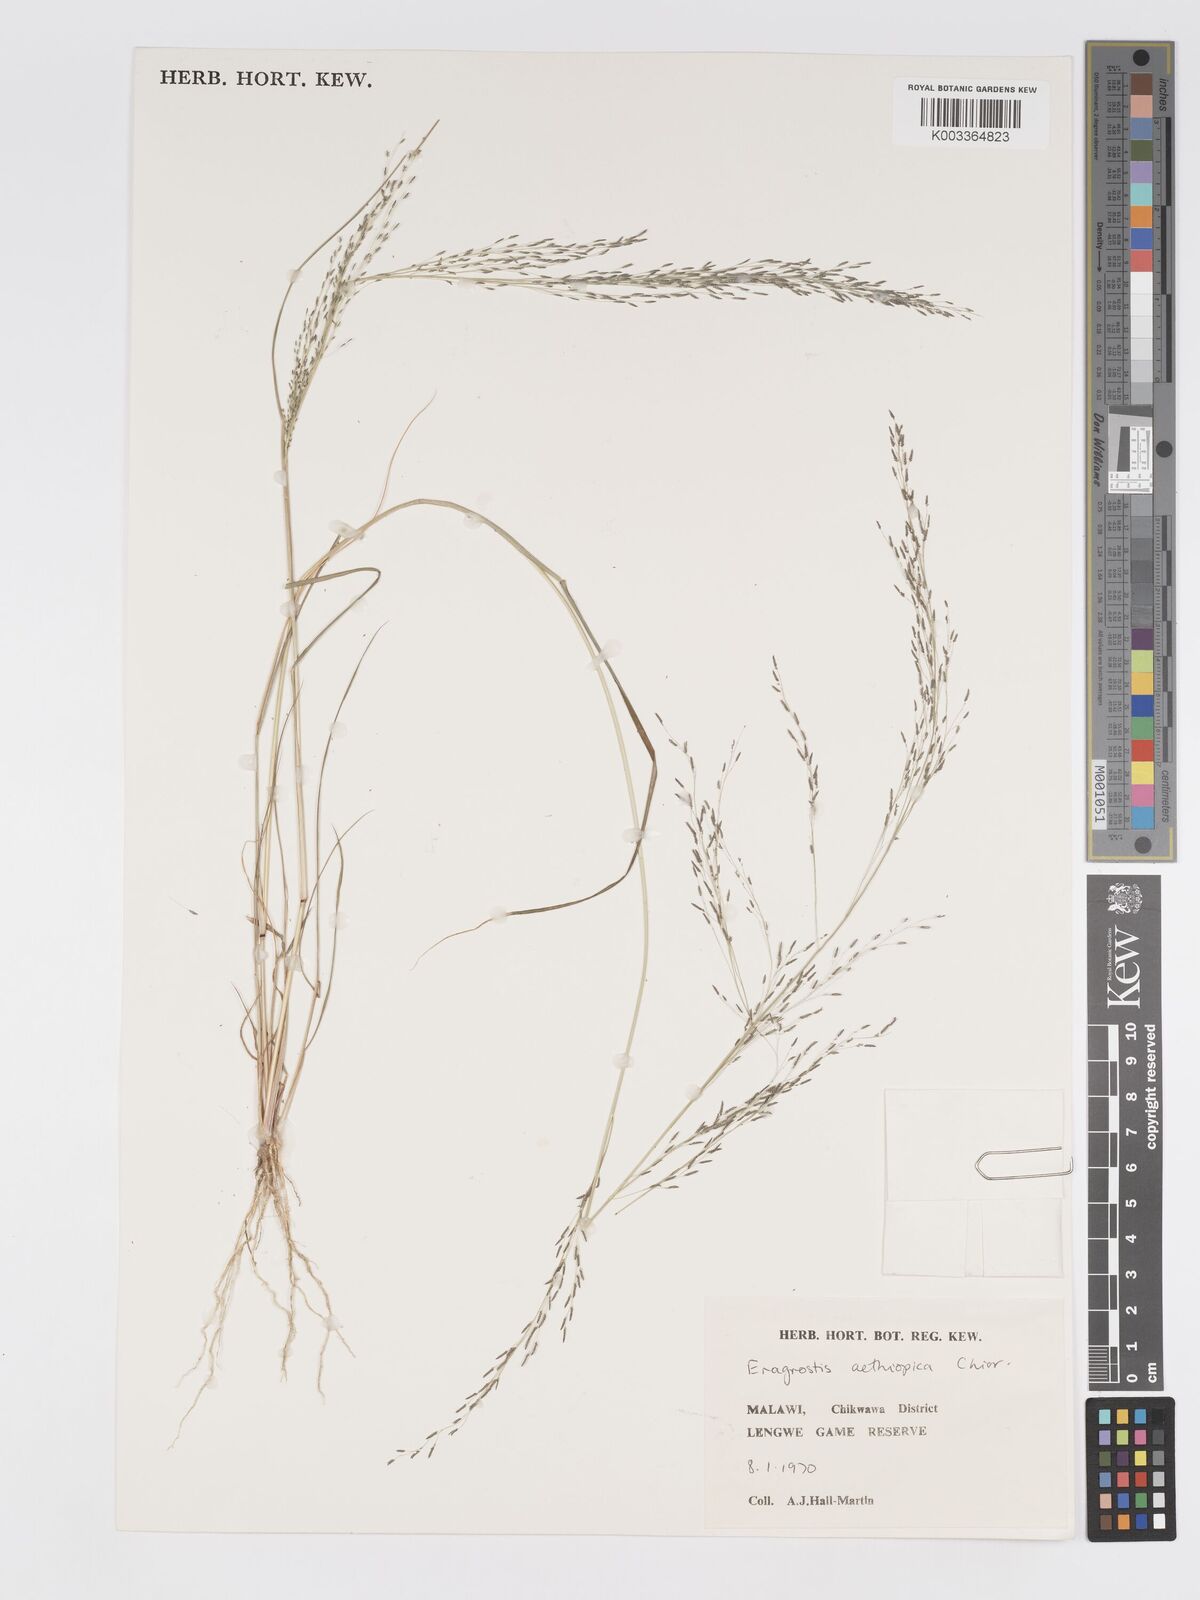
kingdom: Plantae
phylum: Tracheophyta
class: Liliopsida
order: Poales
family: Poaceae
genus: Eragrostis
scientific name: Eragrostis aethiopica
